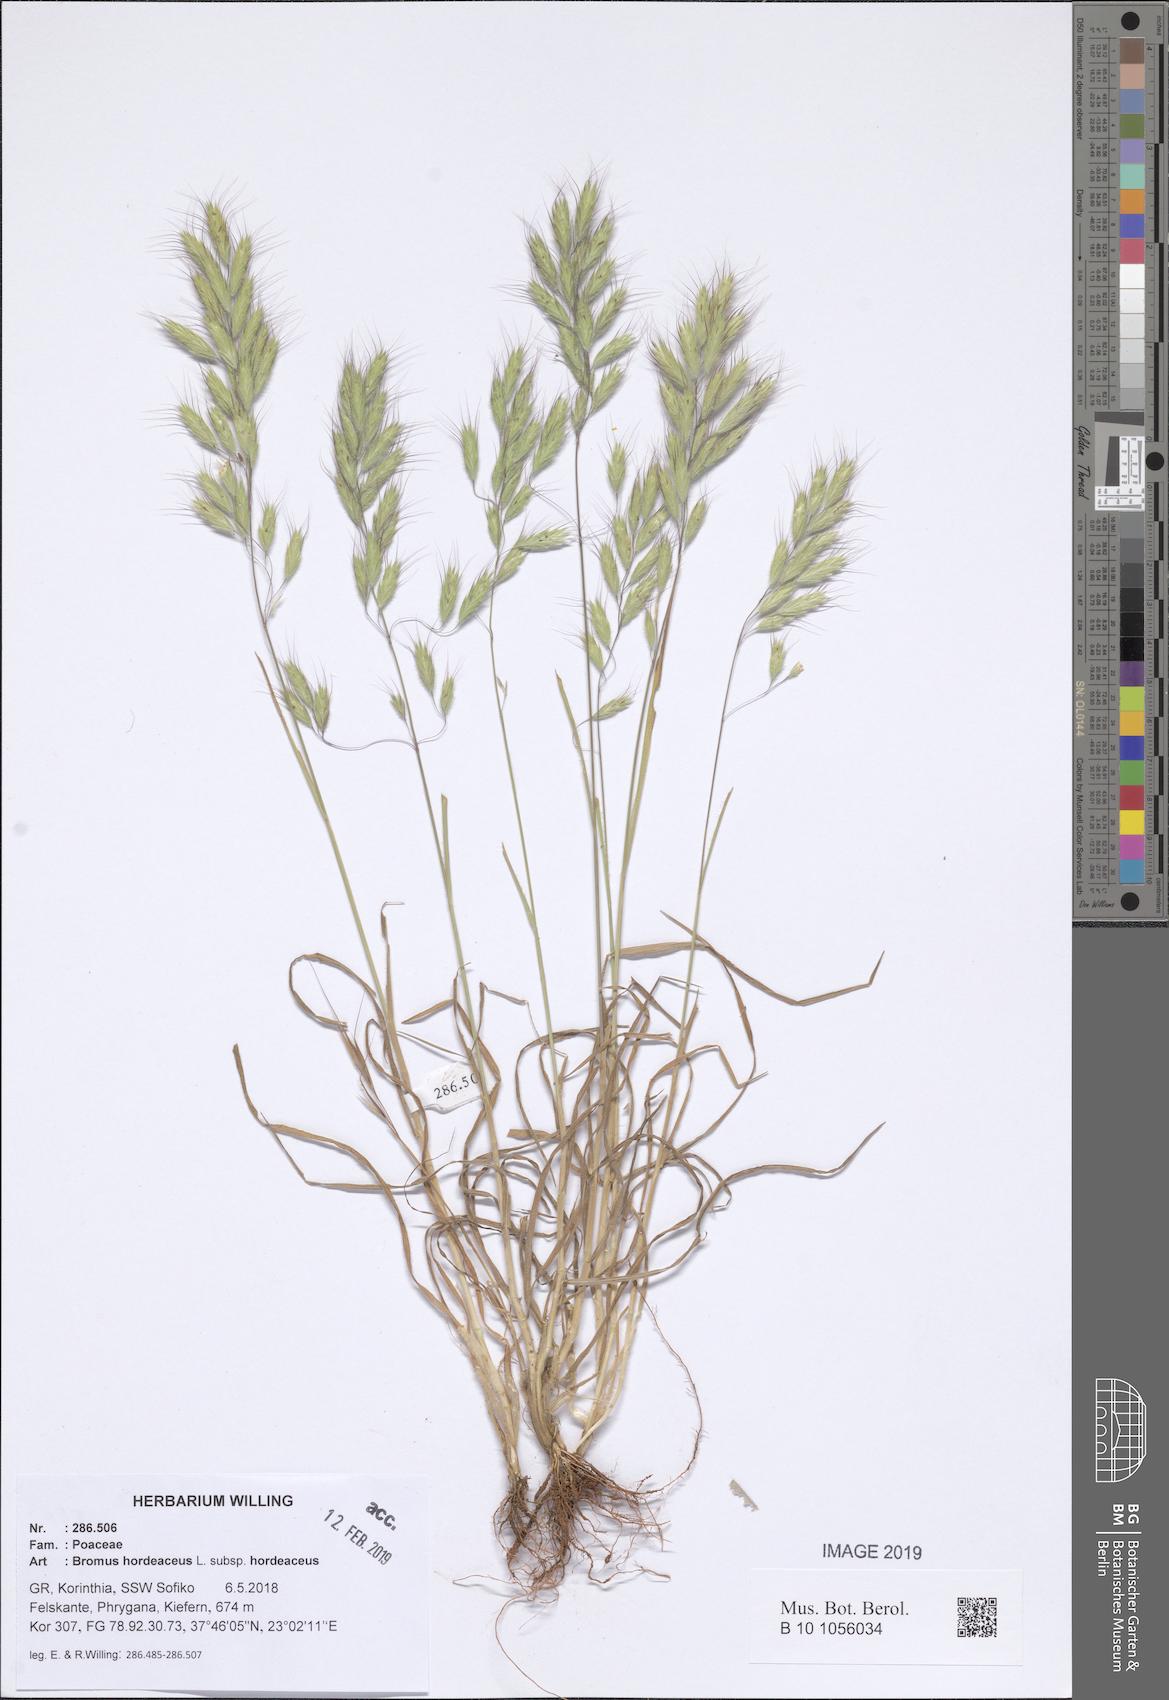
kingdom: Plantae
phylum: Tracheophyta
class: Liliopsida
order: Poales
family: Poaceae
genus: Bromus
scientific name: Bromus hordeaceus
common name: Soft brome
